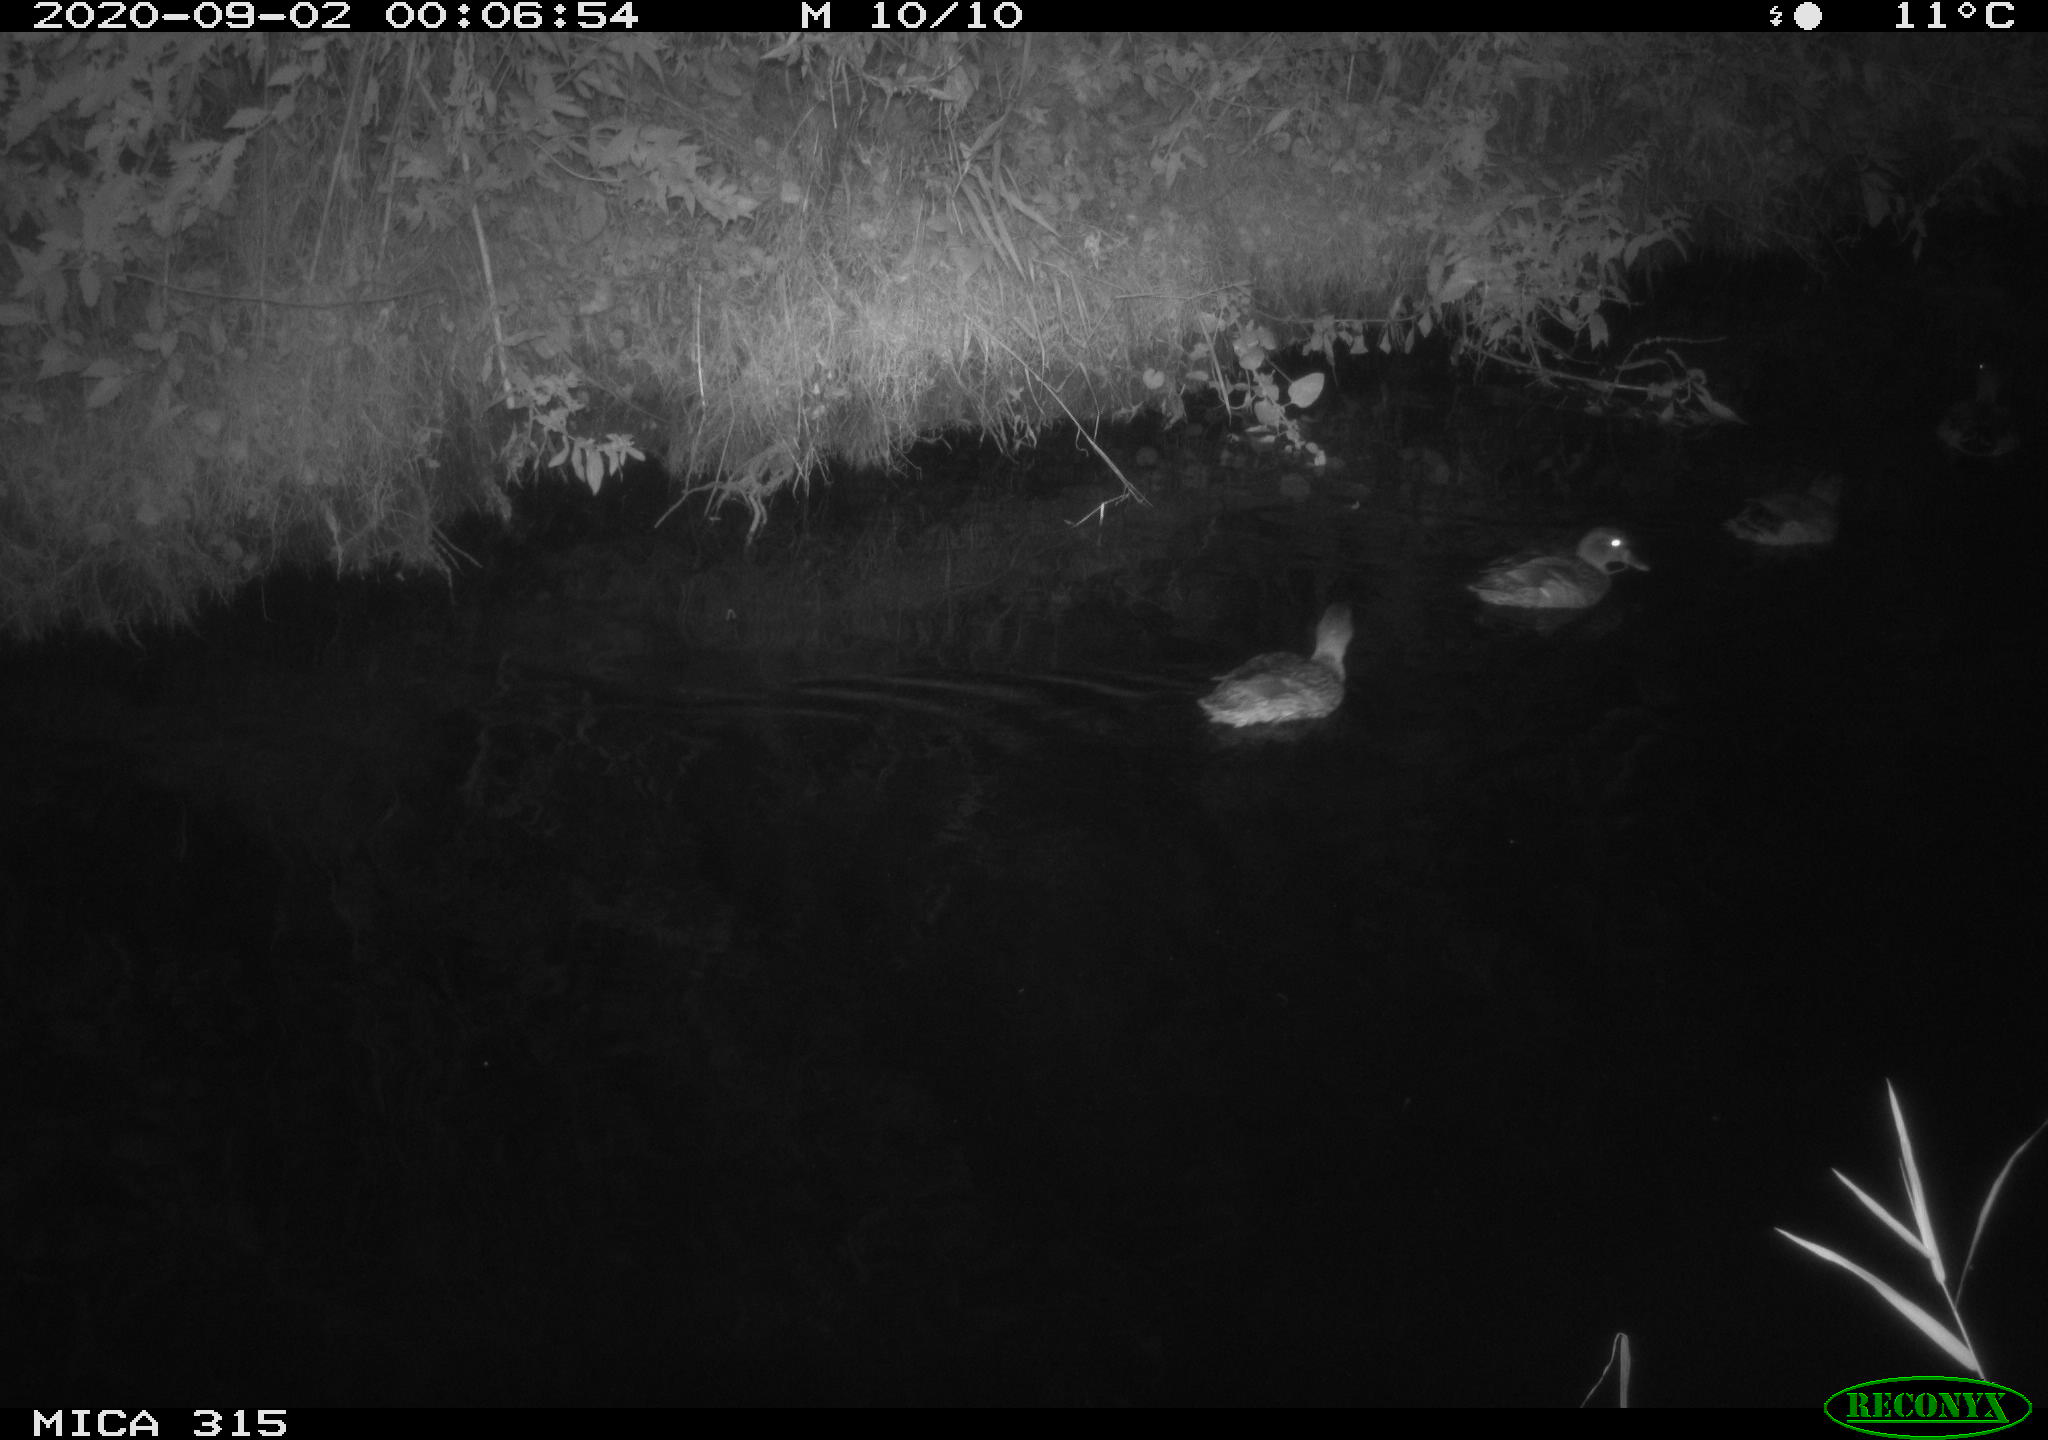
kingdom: Animalia
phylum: Chordata
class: Aves
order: Anseriformes
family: Anatidae
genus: Anas
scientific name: Anas platyrhynchos
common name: Mallard
